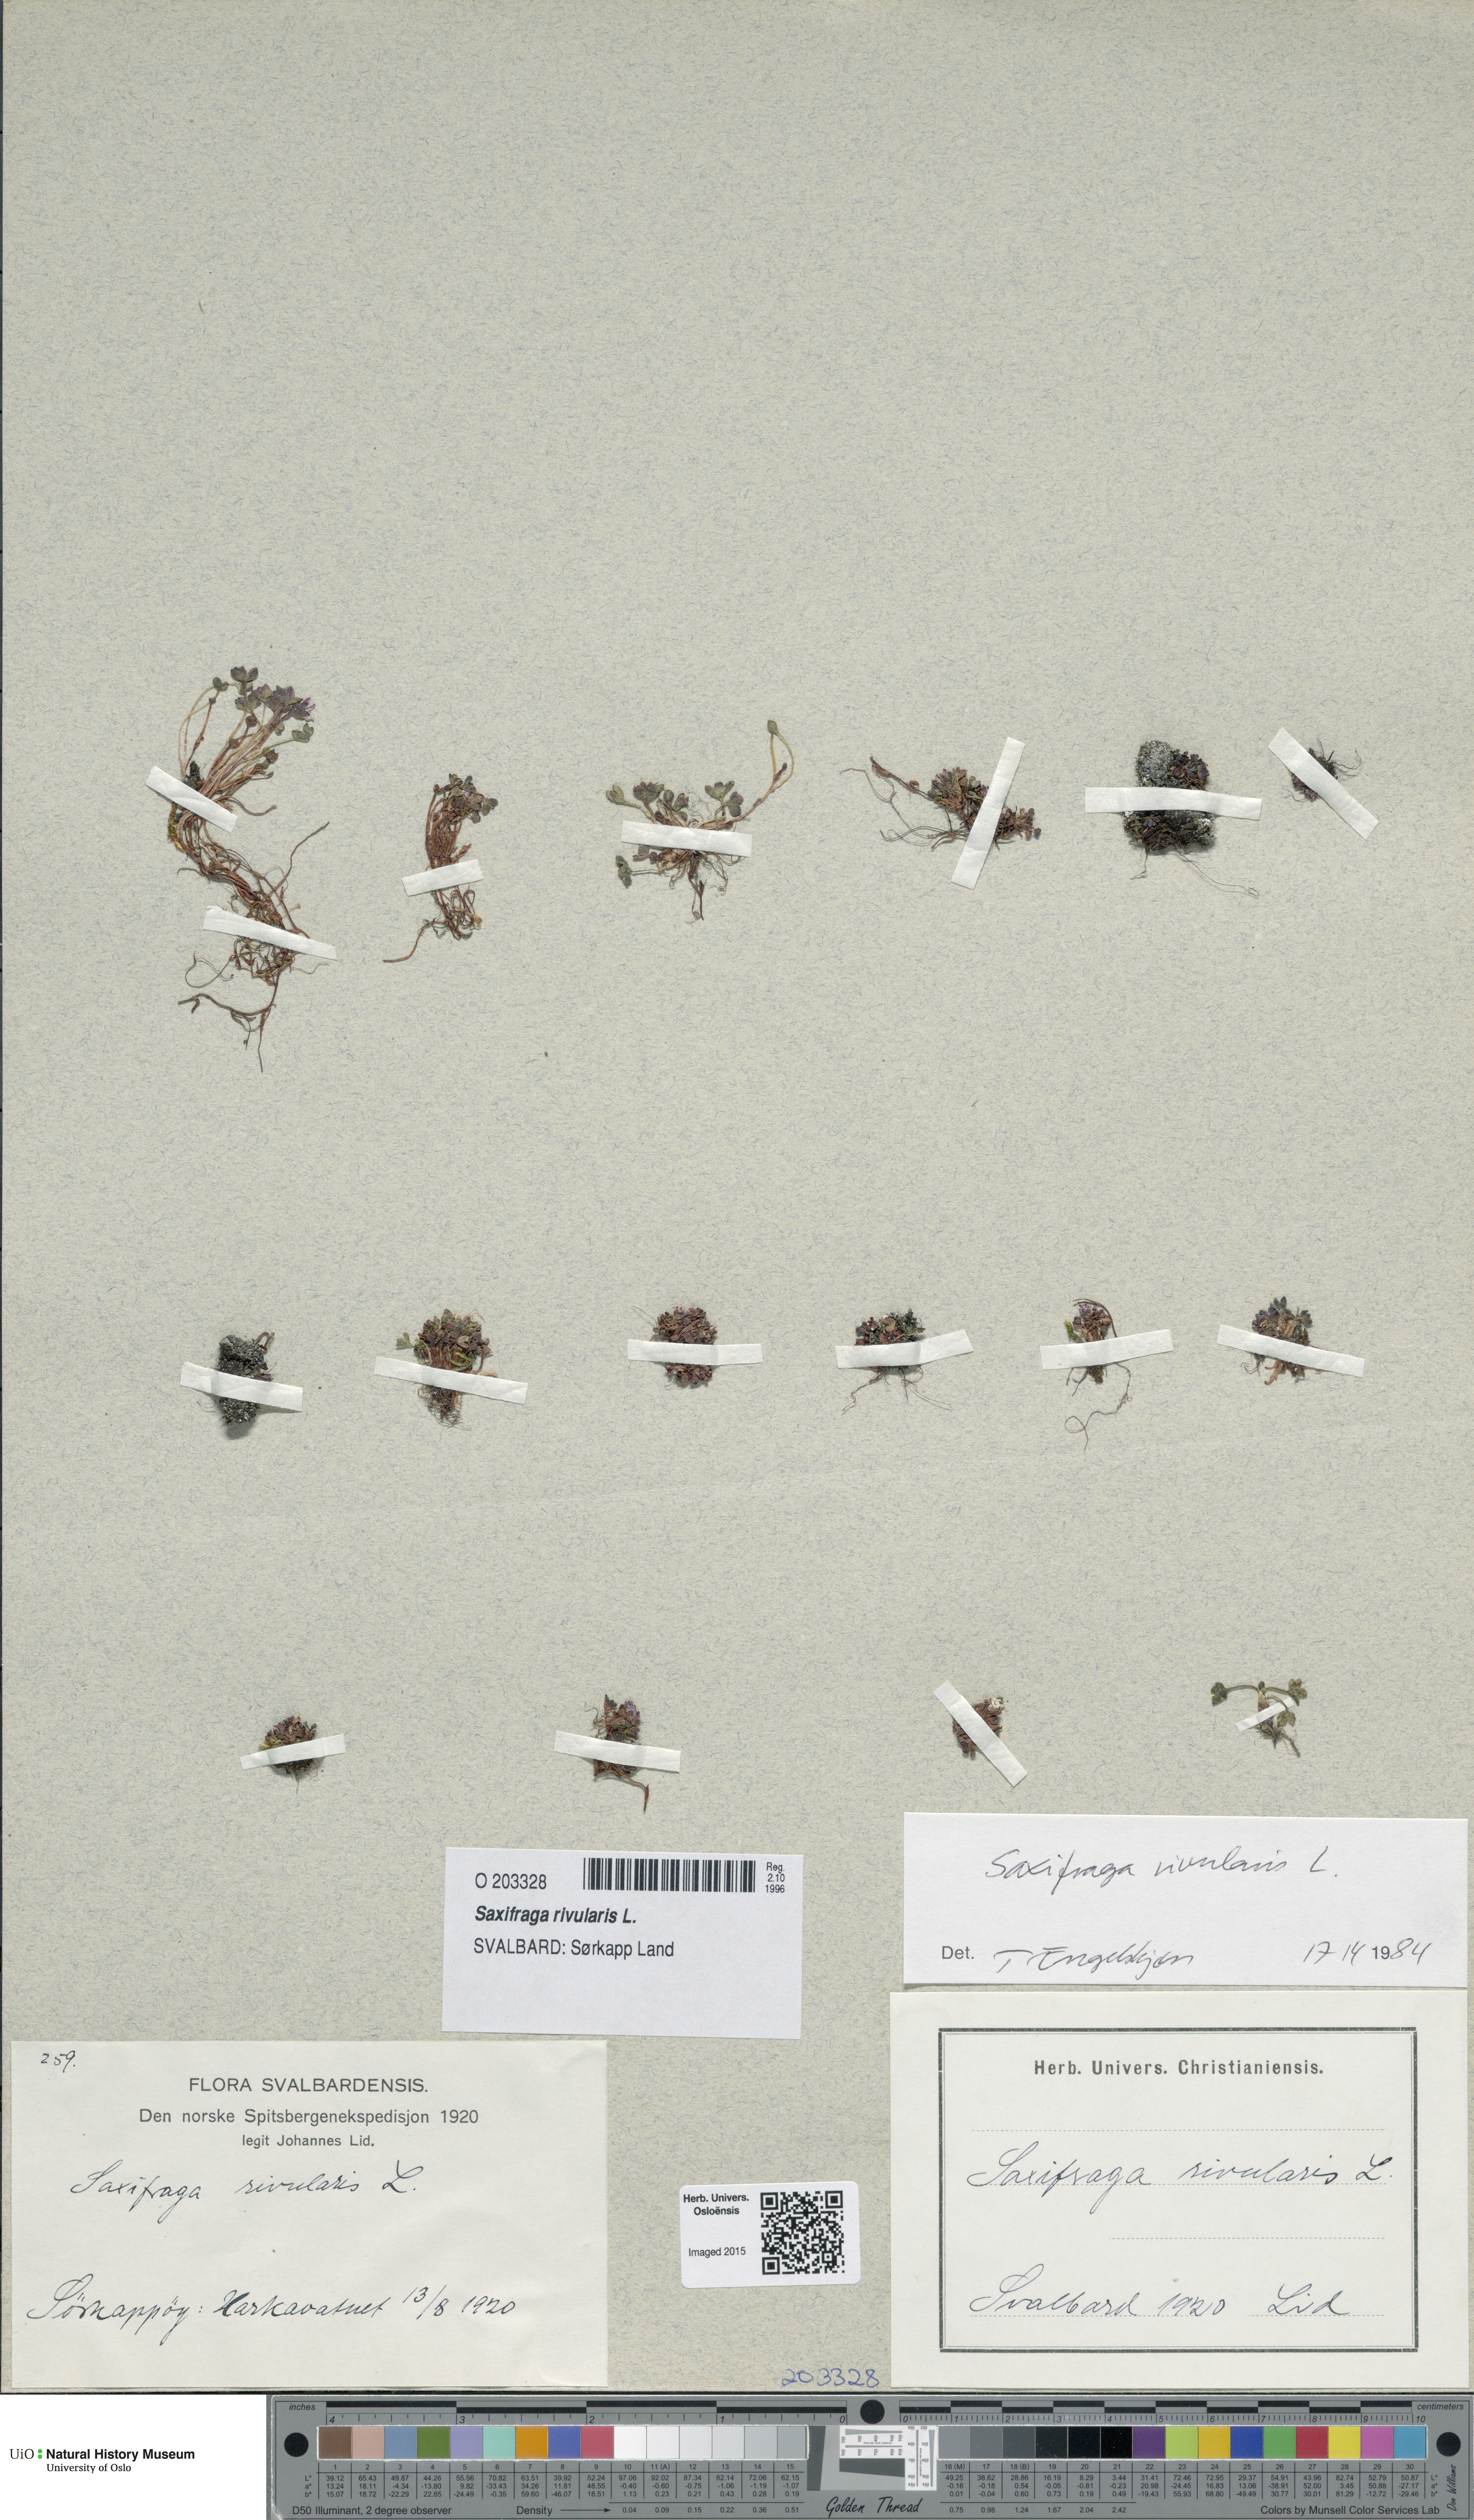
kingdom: Plantae
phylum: Tracheophyta
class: Magnoliopsida
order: Saxifragales
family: Saxifragaceae
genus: Saxifraga
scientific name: Saxifraga rivularis
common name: Highland saxifrage
